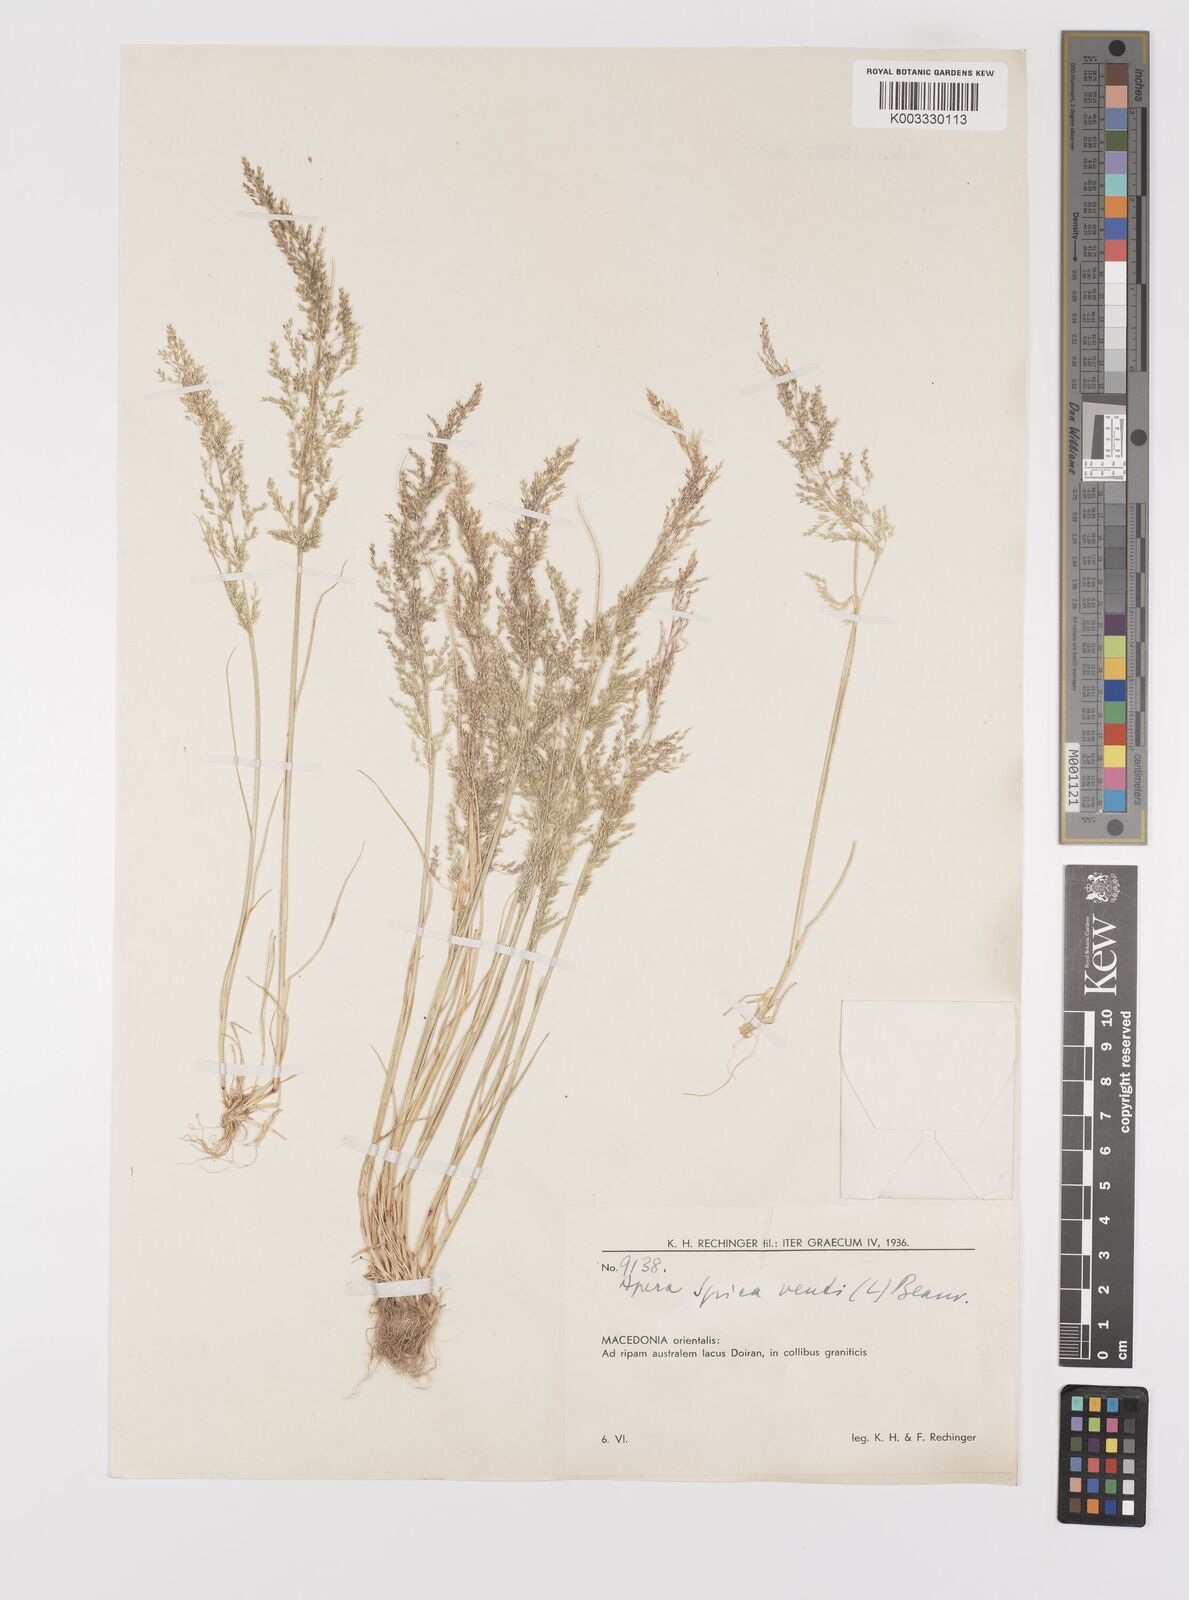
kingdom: Plantae
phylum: Tracheophyta
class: Liliopsida
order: Poales
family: Poaceae
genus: Apera
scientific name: Apera spica-venti
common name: Loose silky-bent
